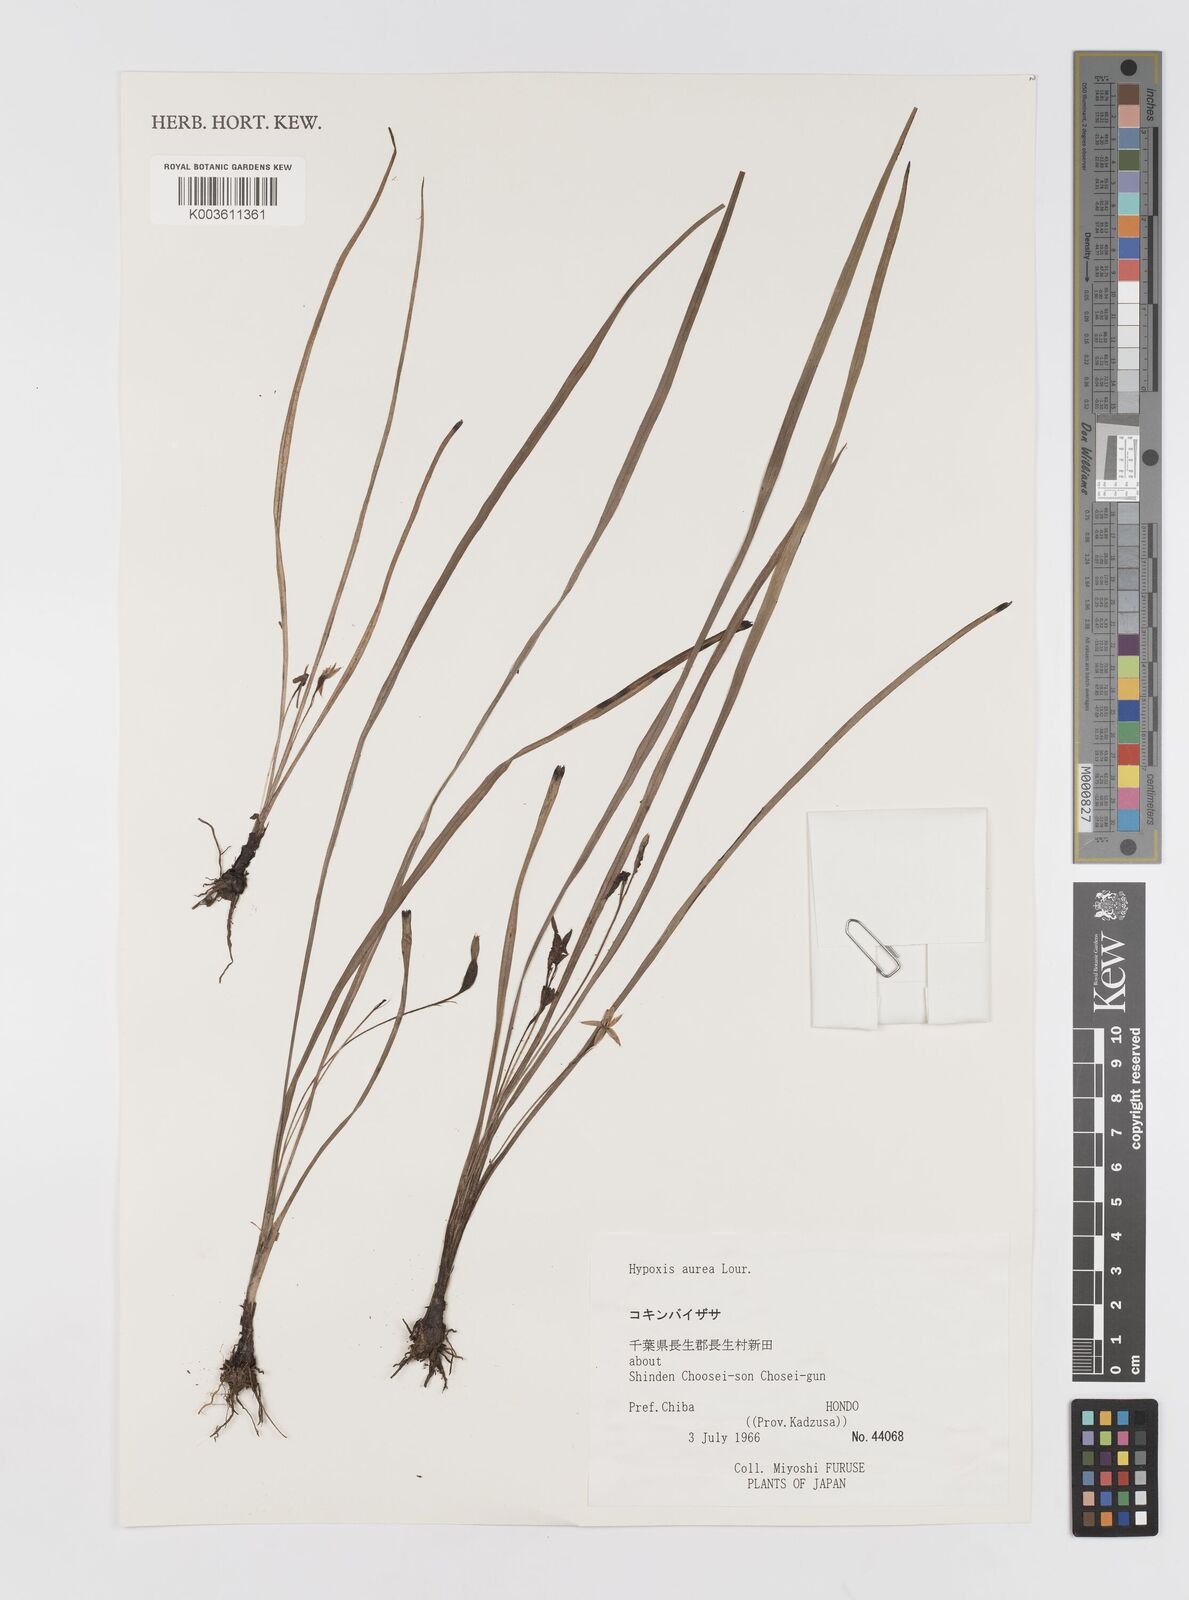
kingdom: Plantae
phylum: Tracheophyta
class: Liliopsida
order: Asparagales
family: Hypoxidaceae
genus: Hypoxis
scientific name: Hypoxis aurea
